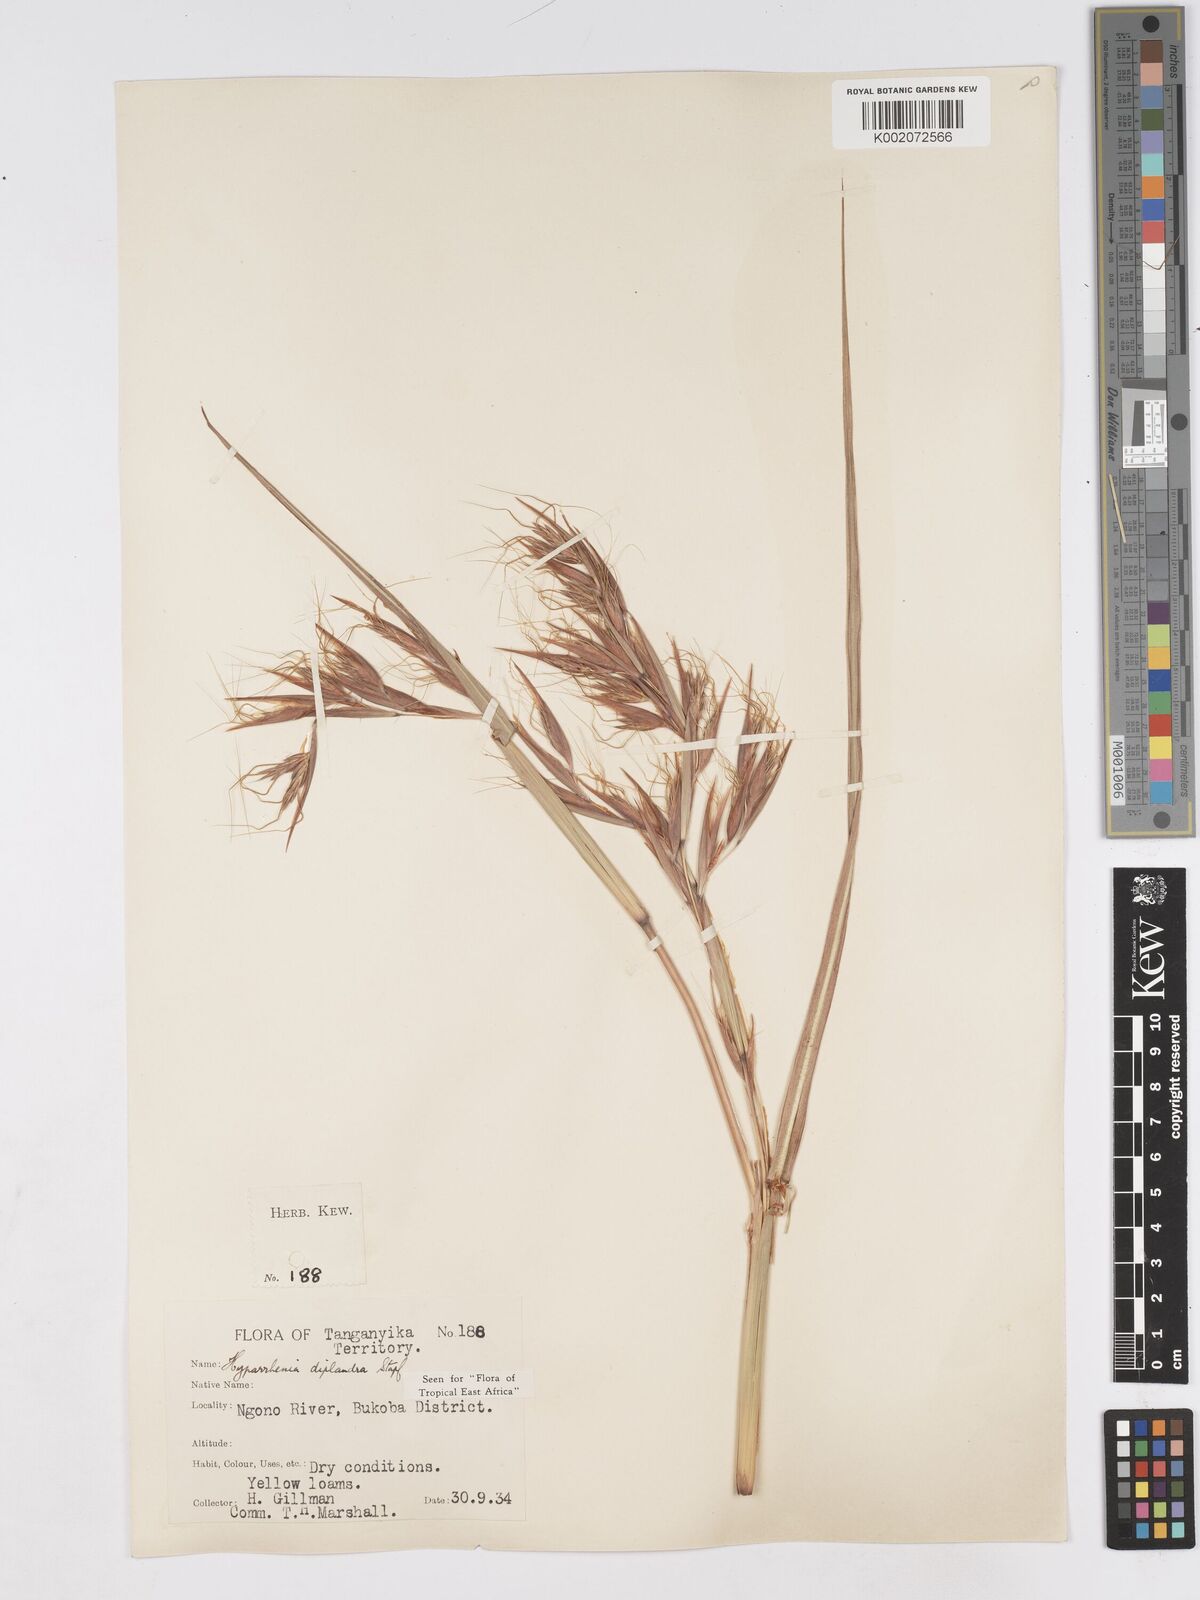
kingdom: Plantae
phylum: Tracheophyta
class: Liliopsida
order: Poales
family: Poaceae
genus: Hyparrhenia
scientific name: Hyparrhenia diplandra
